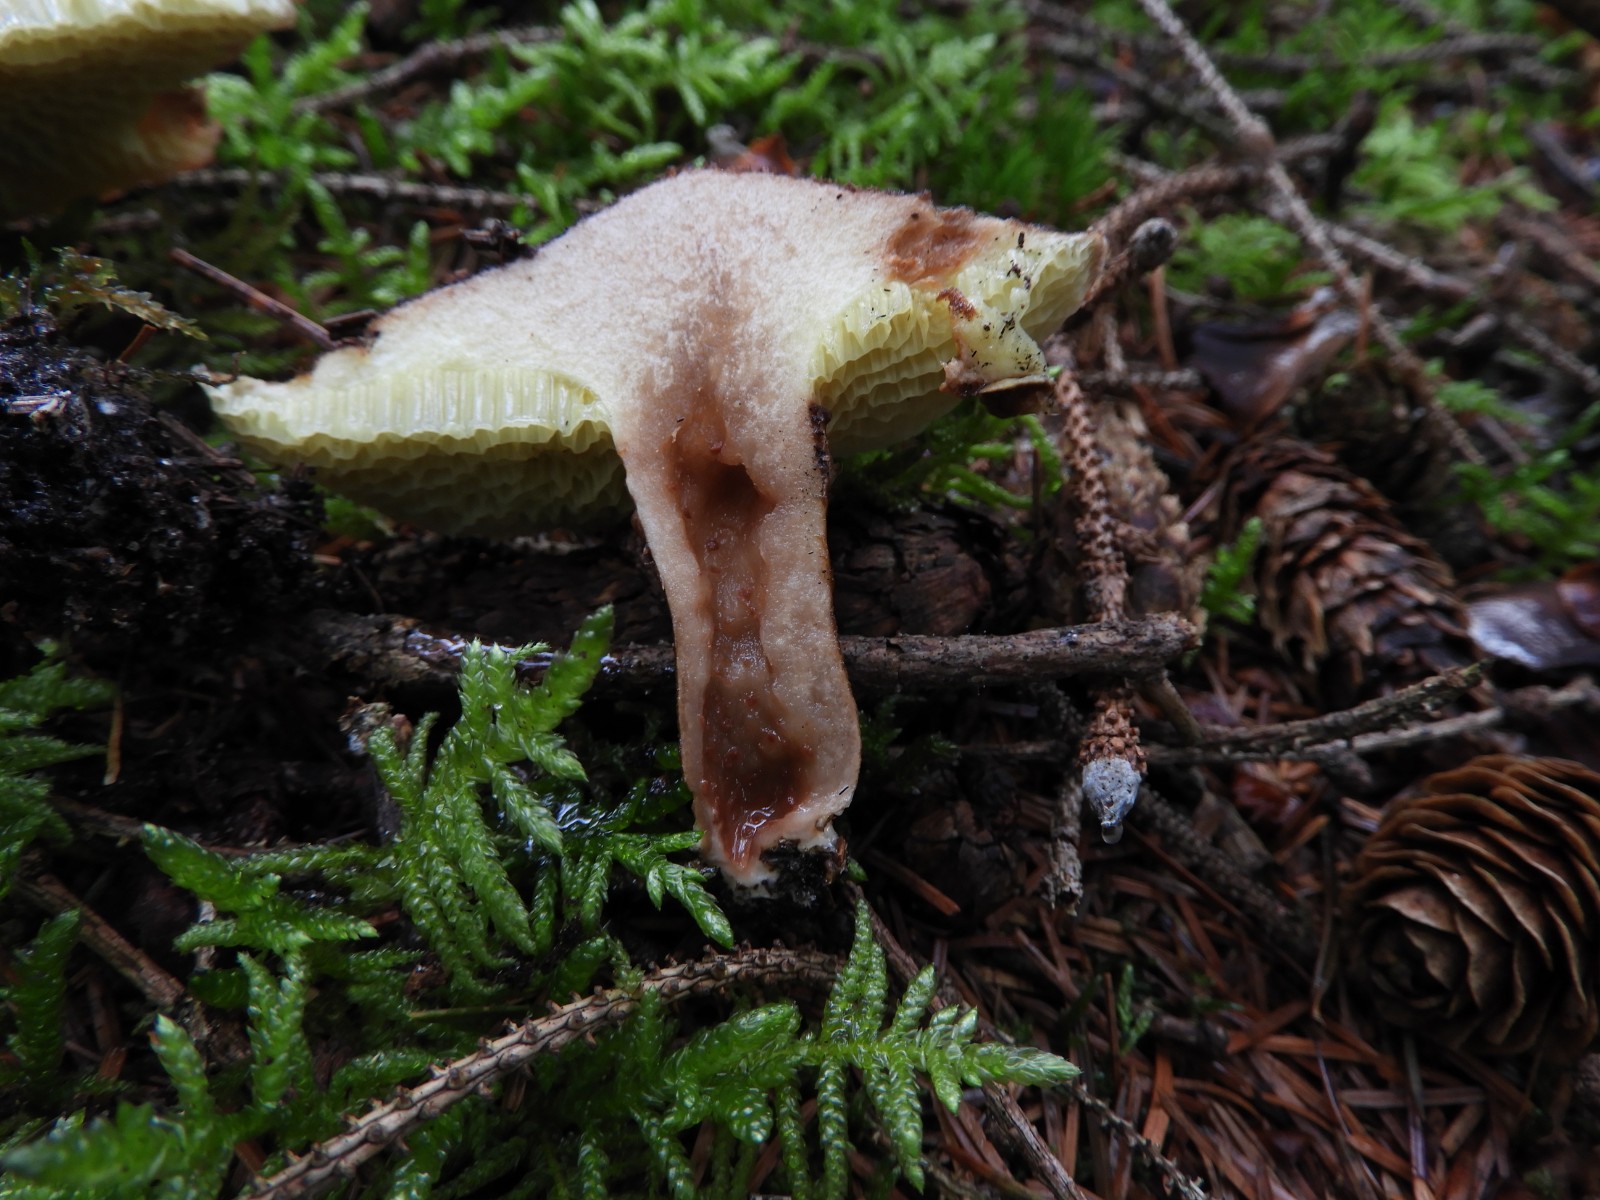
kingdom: Fungi
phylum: Basidiomycota
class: Agaricomycetes
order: Boletales
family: Suillaceae
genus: Suillus
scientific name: Suillus cavipes
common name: hulstokket slimrørhat
